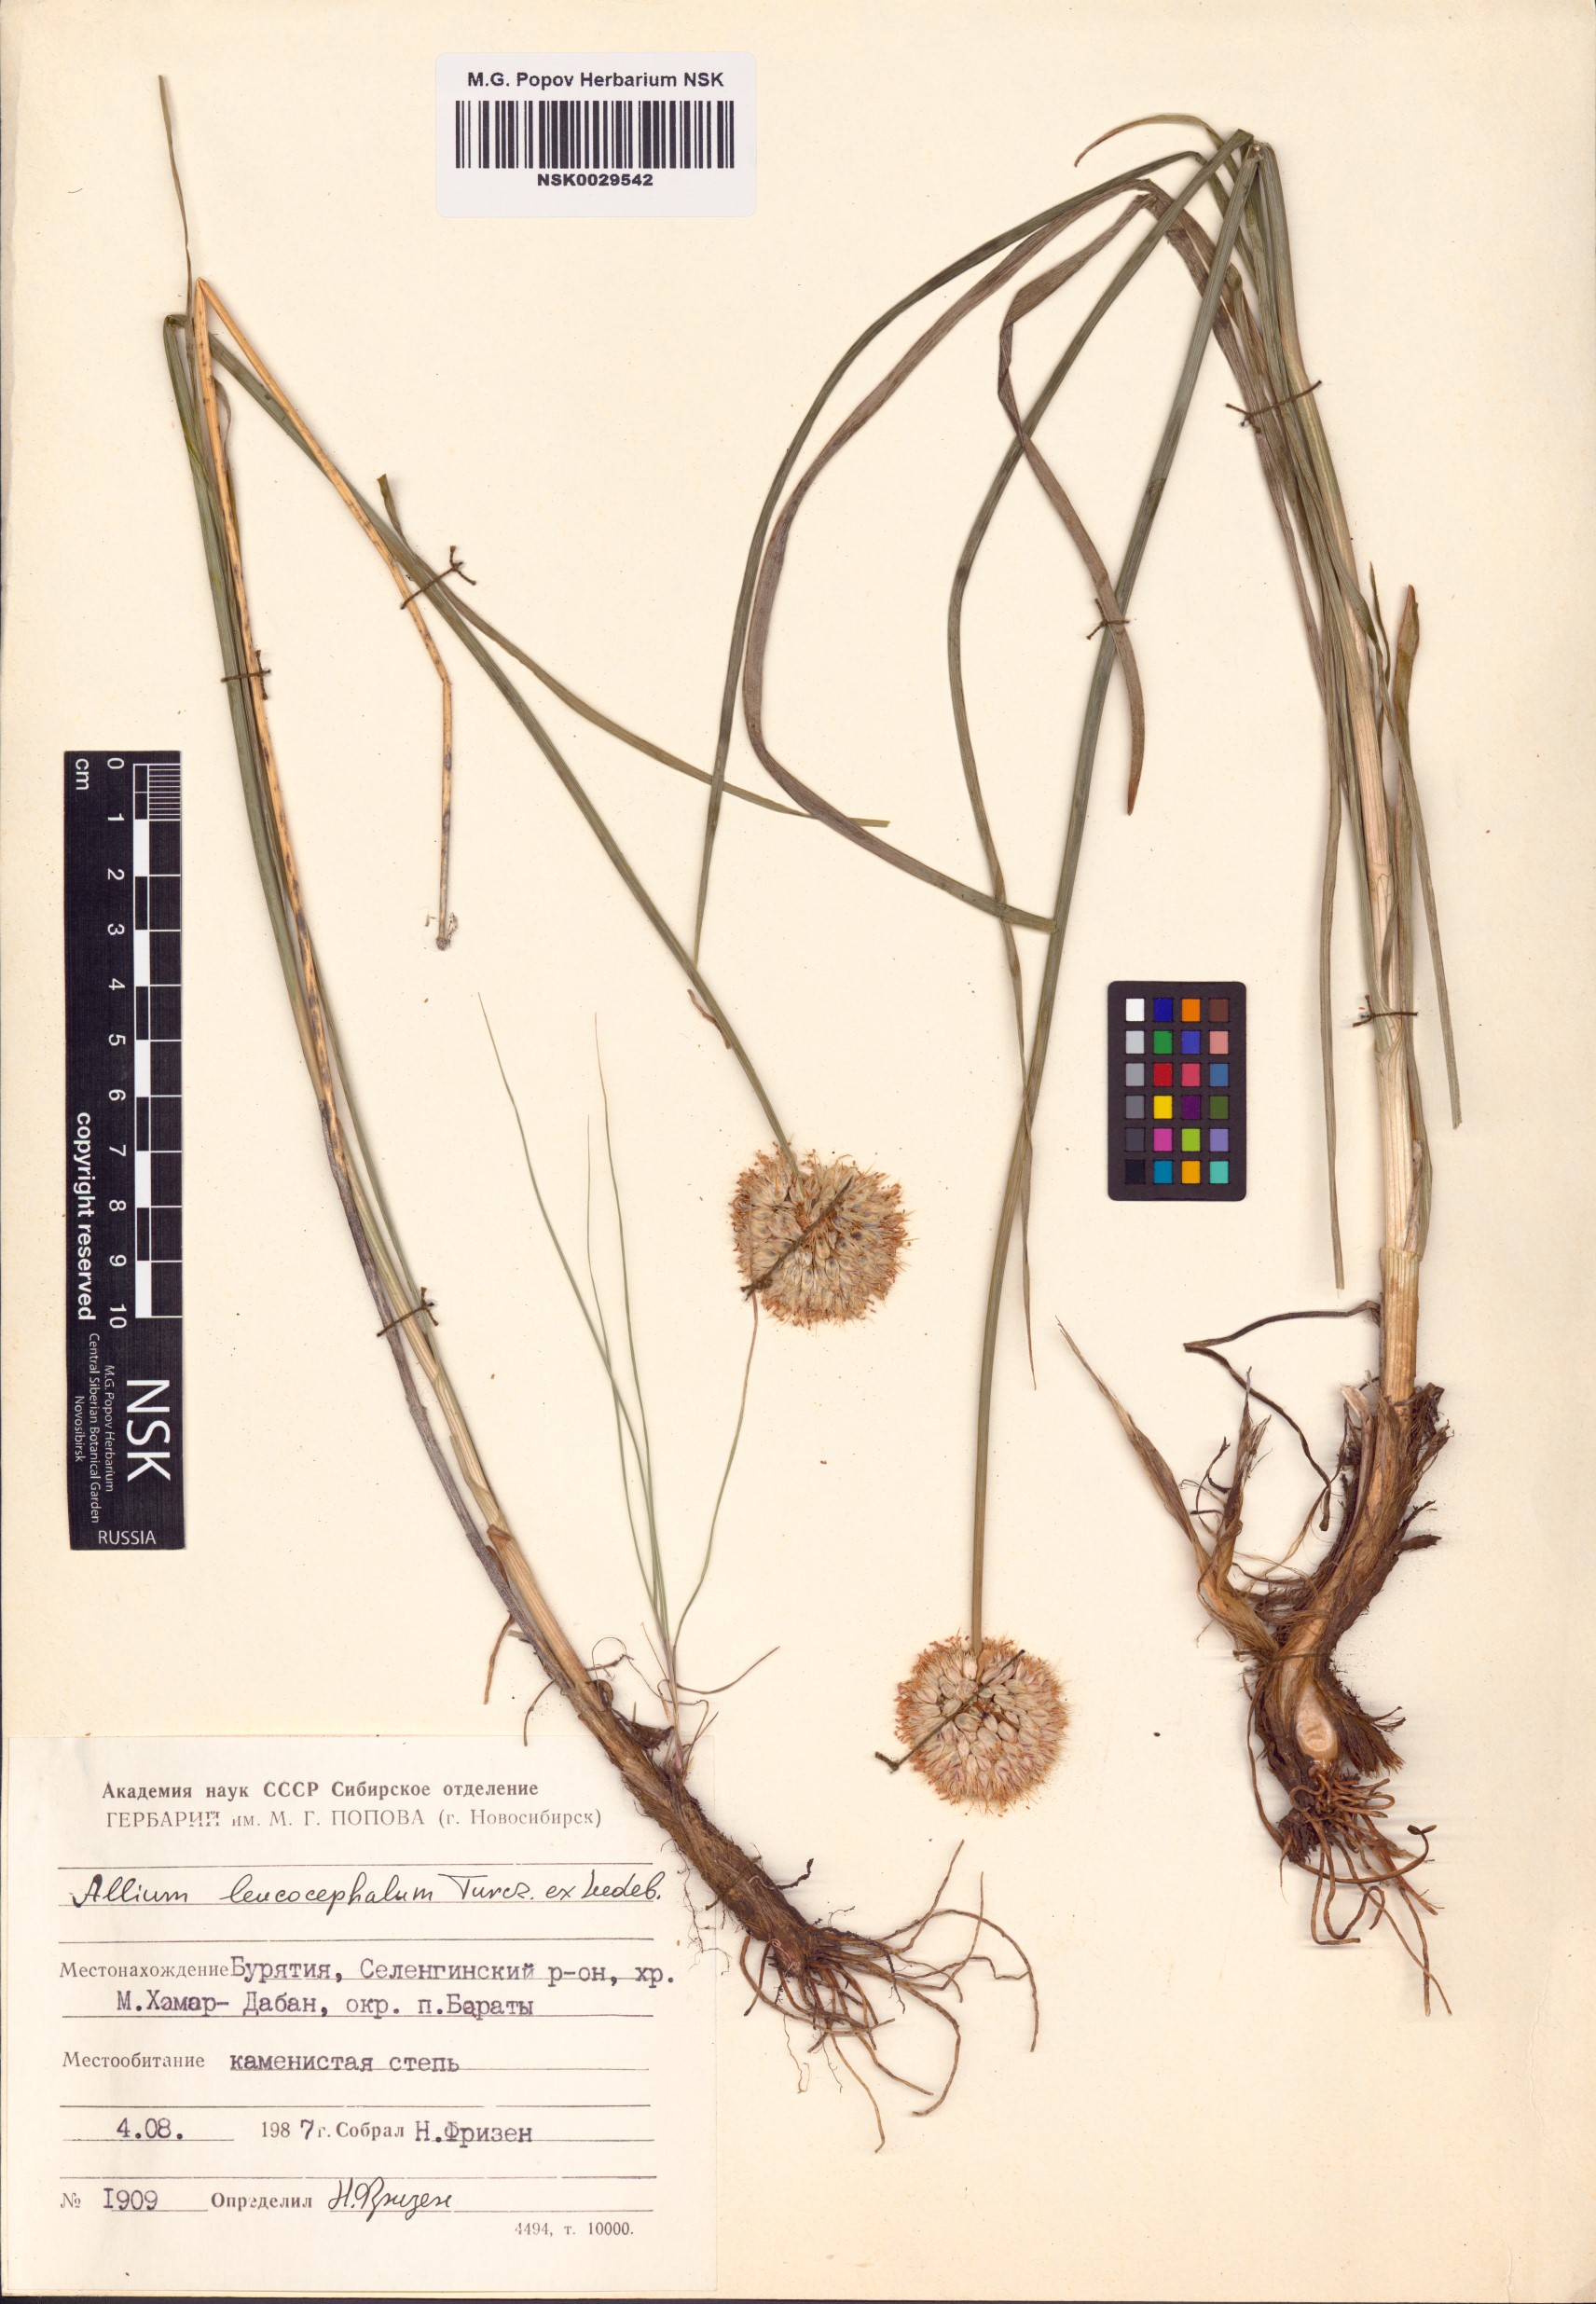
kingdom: Plantae
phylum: Tracheophyta
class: Liliopsida
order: Asparagales
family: Amaryllidaceae
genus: Allium
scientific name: Allium leucocephalum
